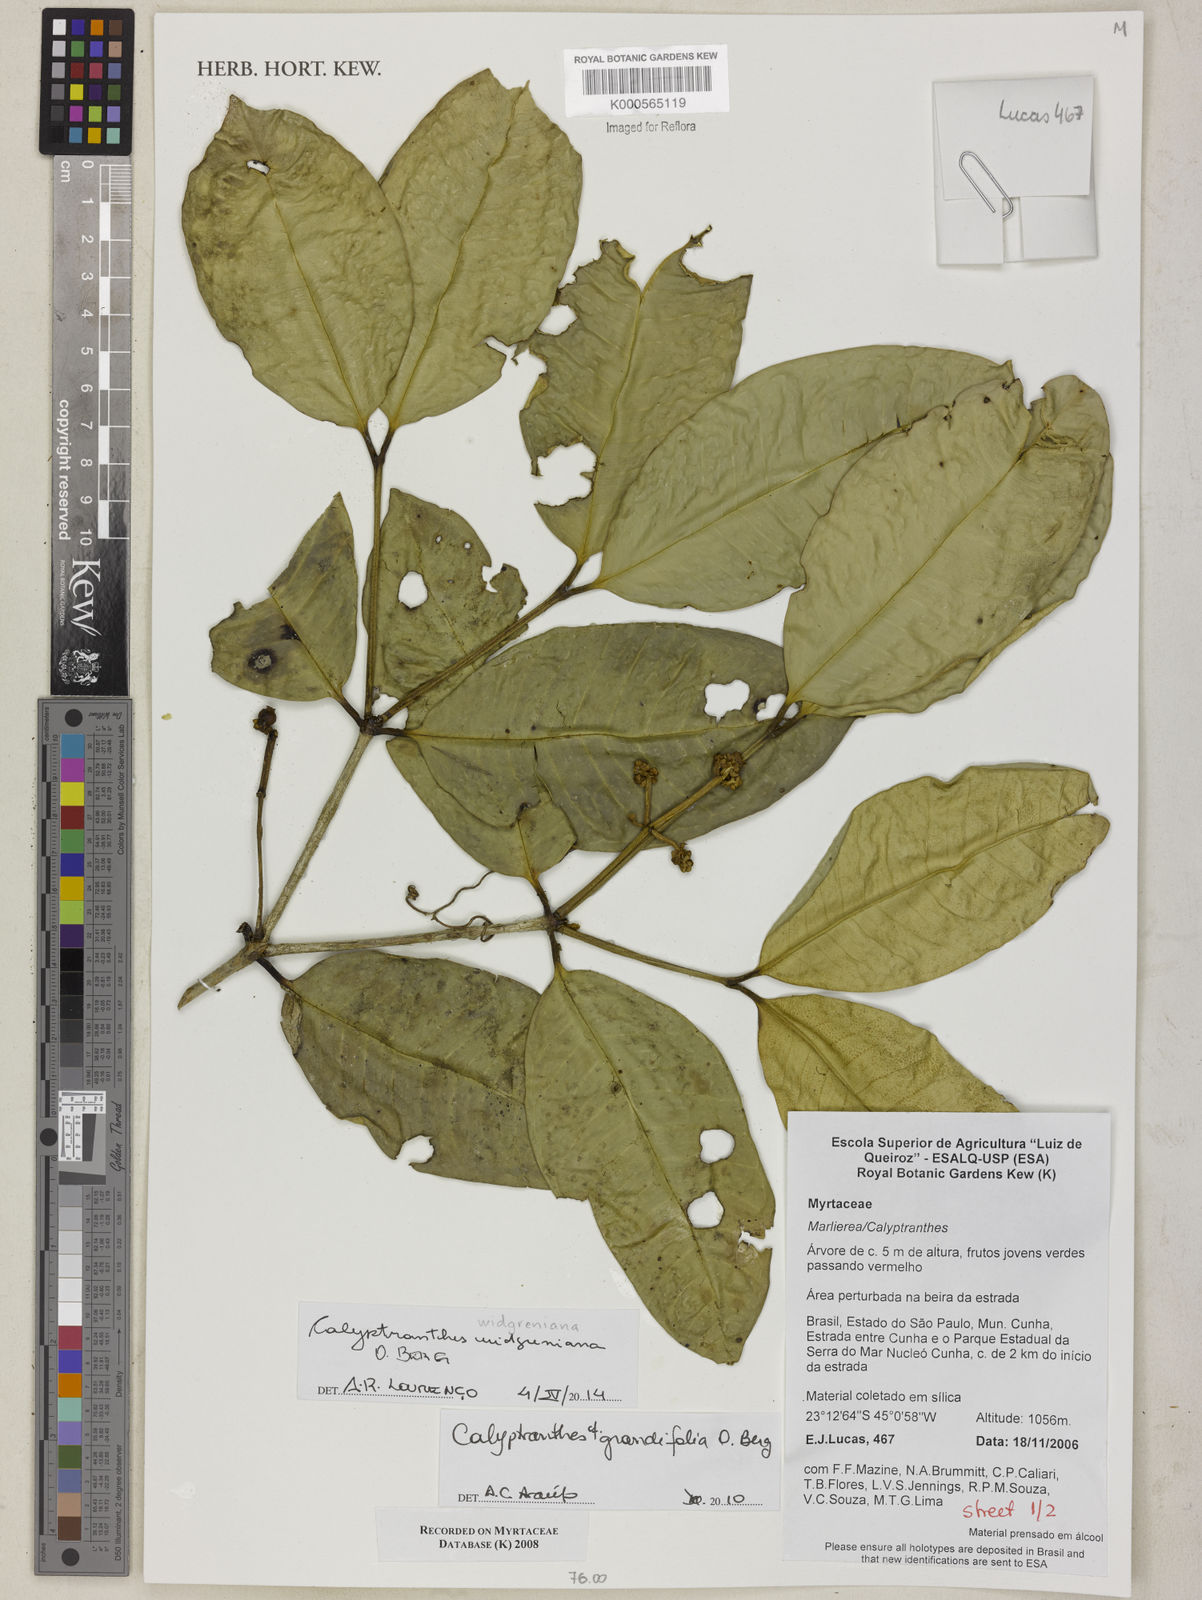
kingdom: Plantae
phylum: Tracheophyta
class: Magnoliopsida
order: Myrtales
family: Myrtaceae
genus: Calyptranthes
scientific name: Calyptranthes widgreniana
